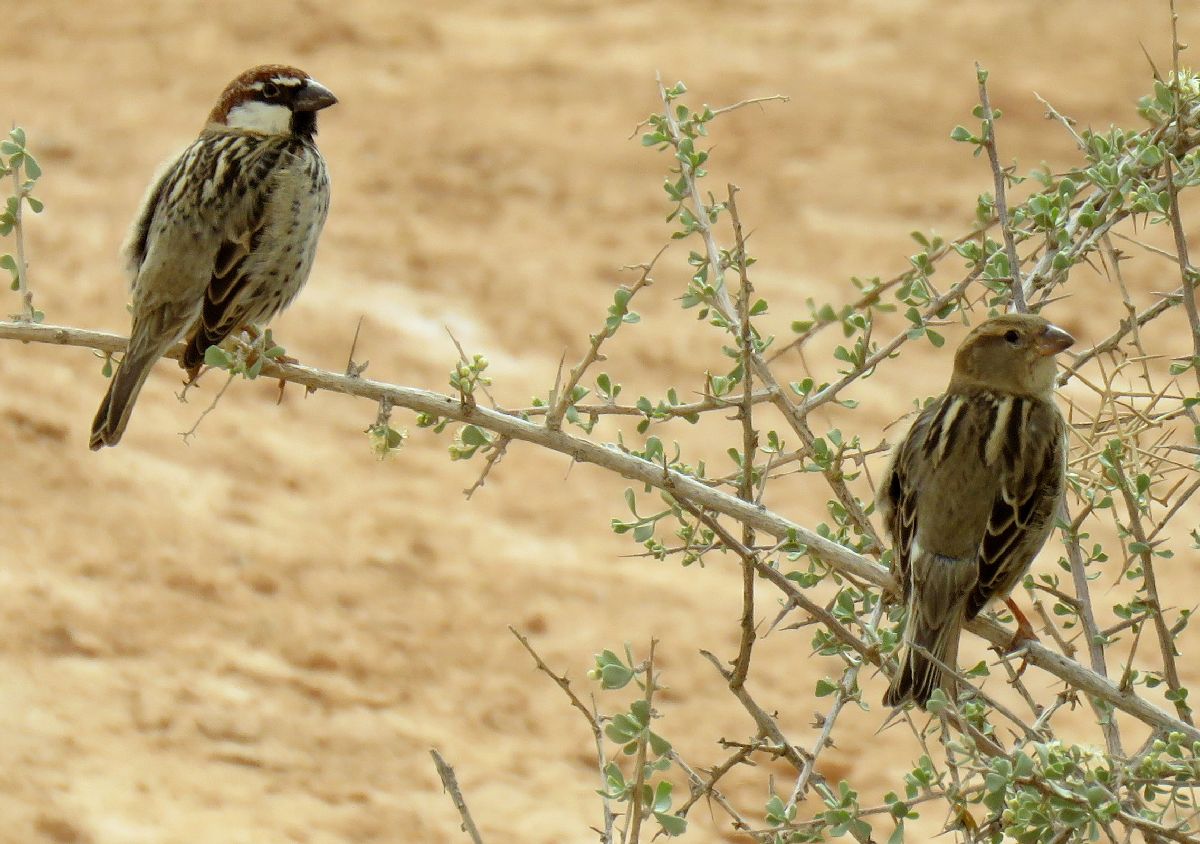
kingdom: Animalia
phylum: Chordata
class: Aves
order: Passeriformes
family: Passeridae
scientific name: Passeridae
